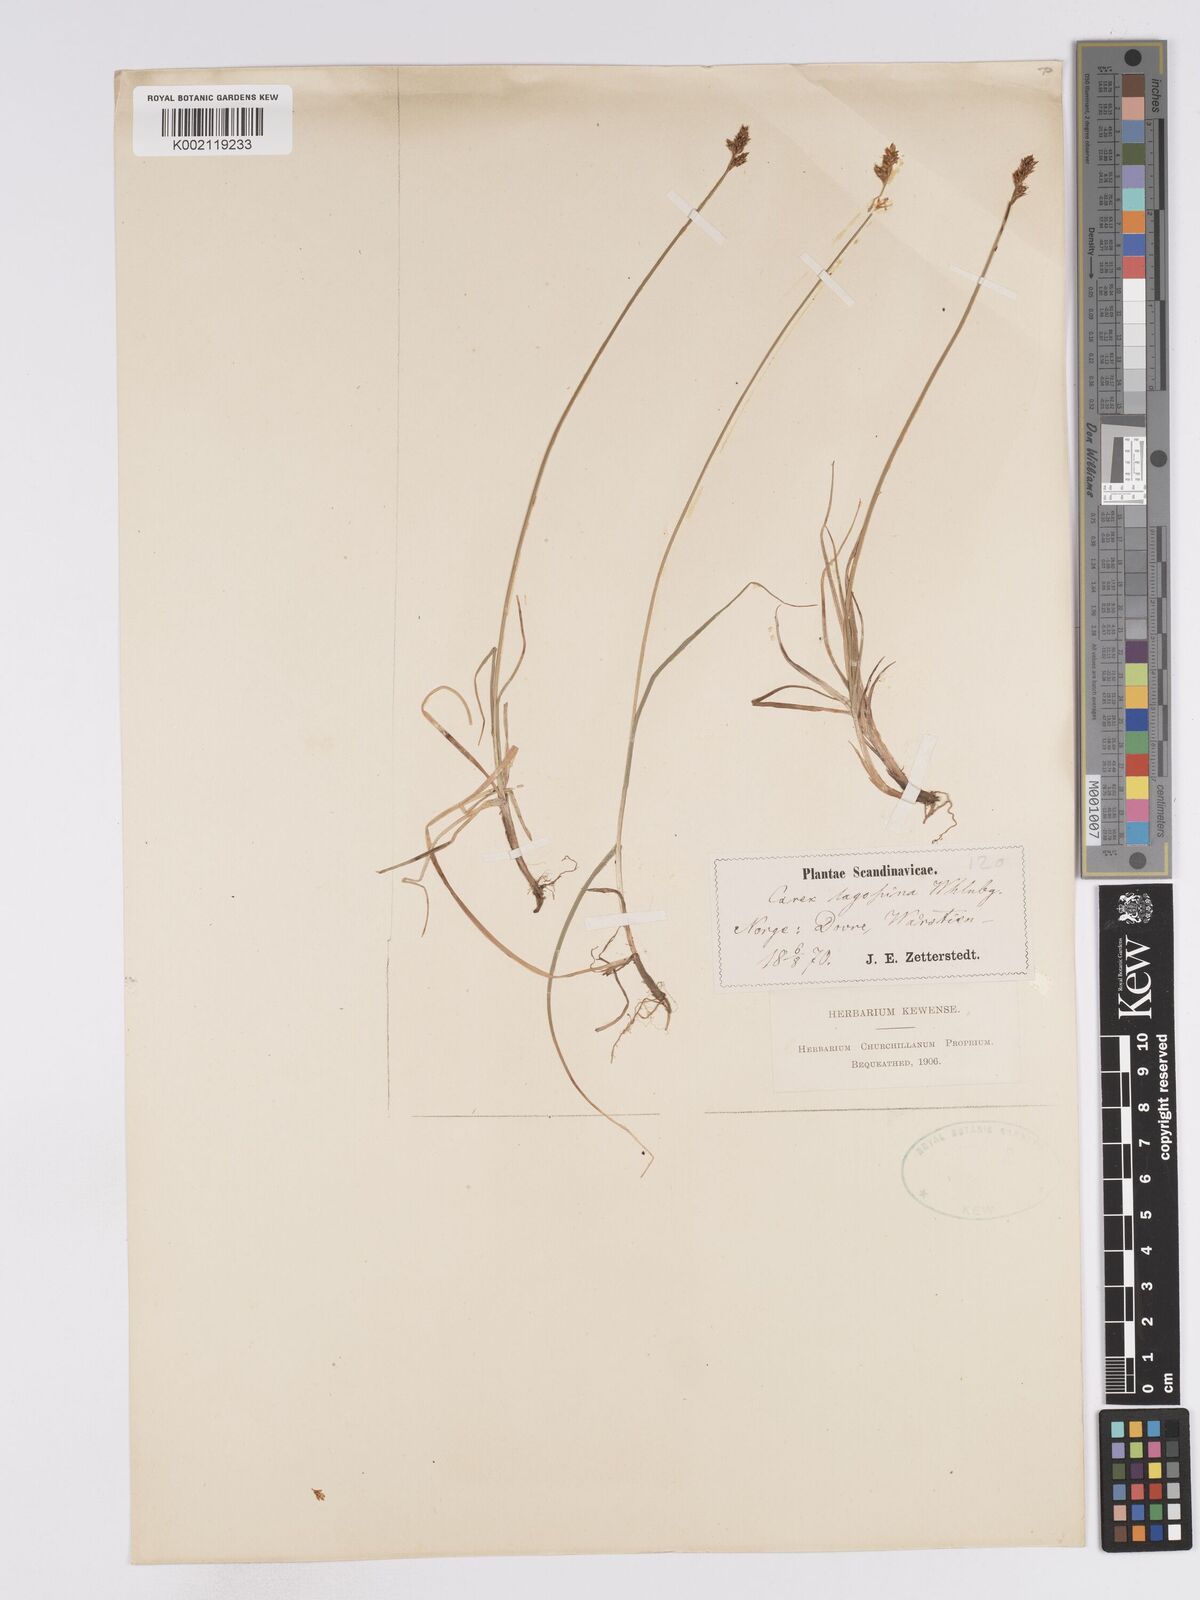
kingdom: Plantae
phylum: Tracheophyta
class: Liliopsida
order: Poales
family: Cyperaceae
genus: Carex
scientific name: Carex lachenalii
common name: Hare's-foot sedge
